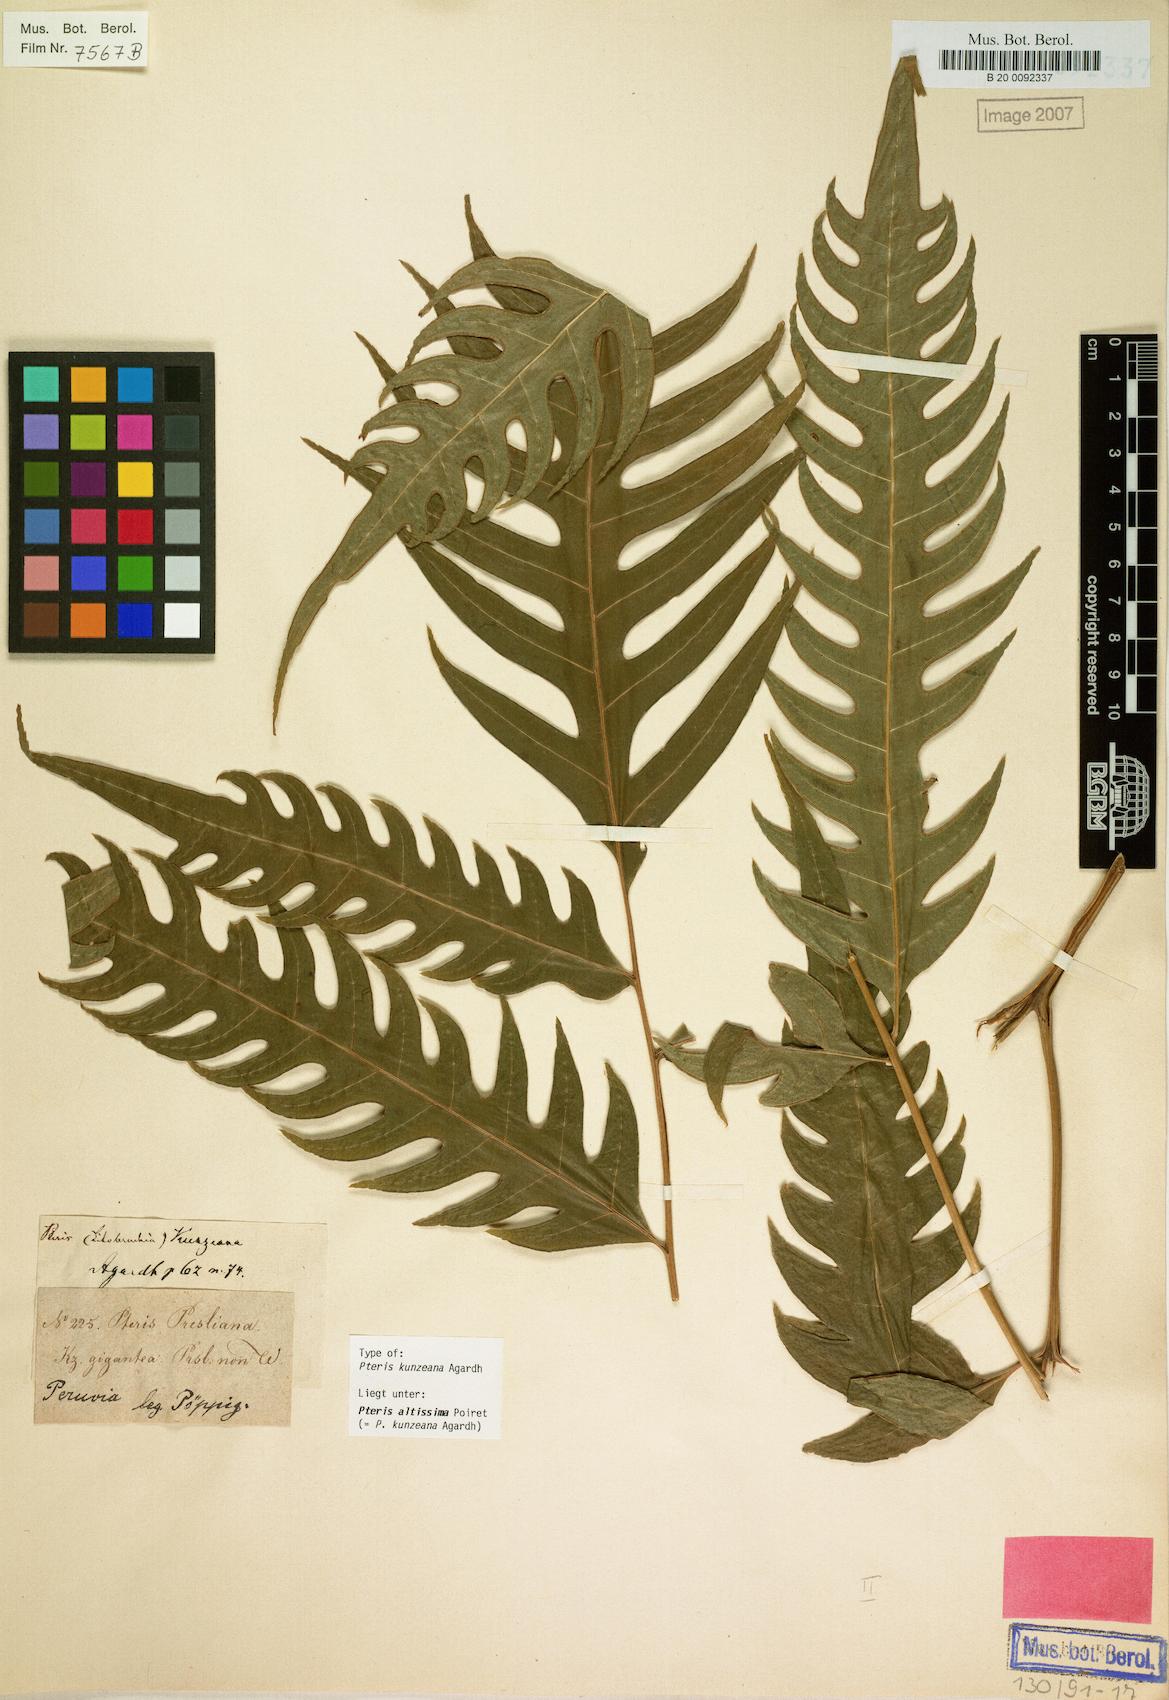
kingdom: Plantae
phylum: Tracheophyta
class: Polypodiopsida
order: Polypodiales
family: Pteridaceae
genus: Pteris
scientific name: Pteris altissima
